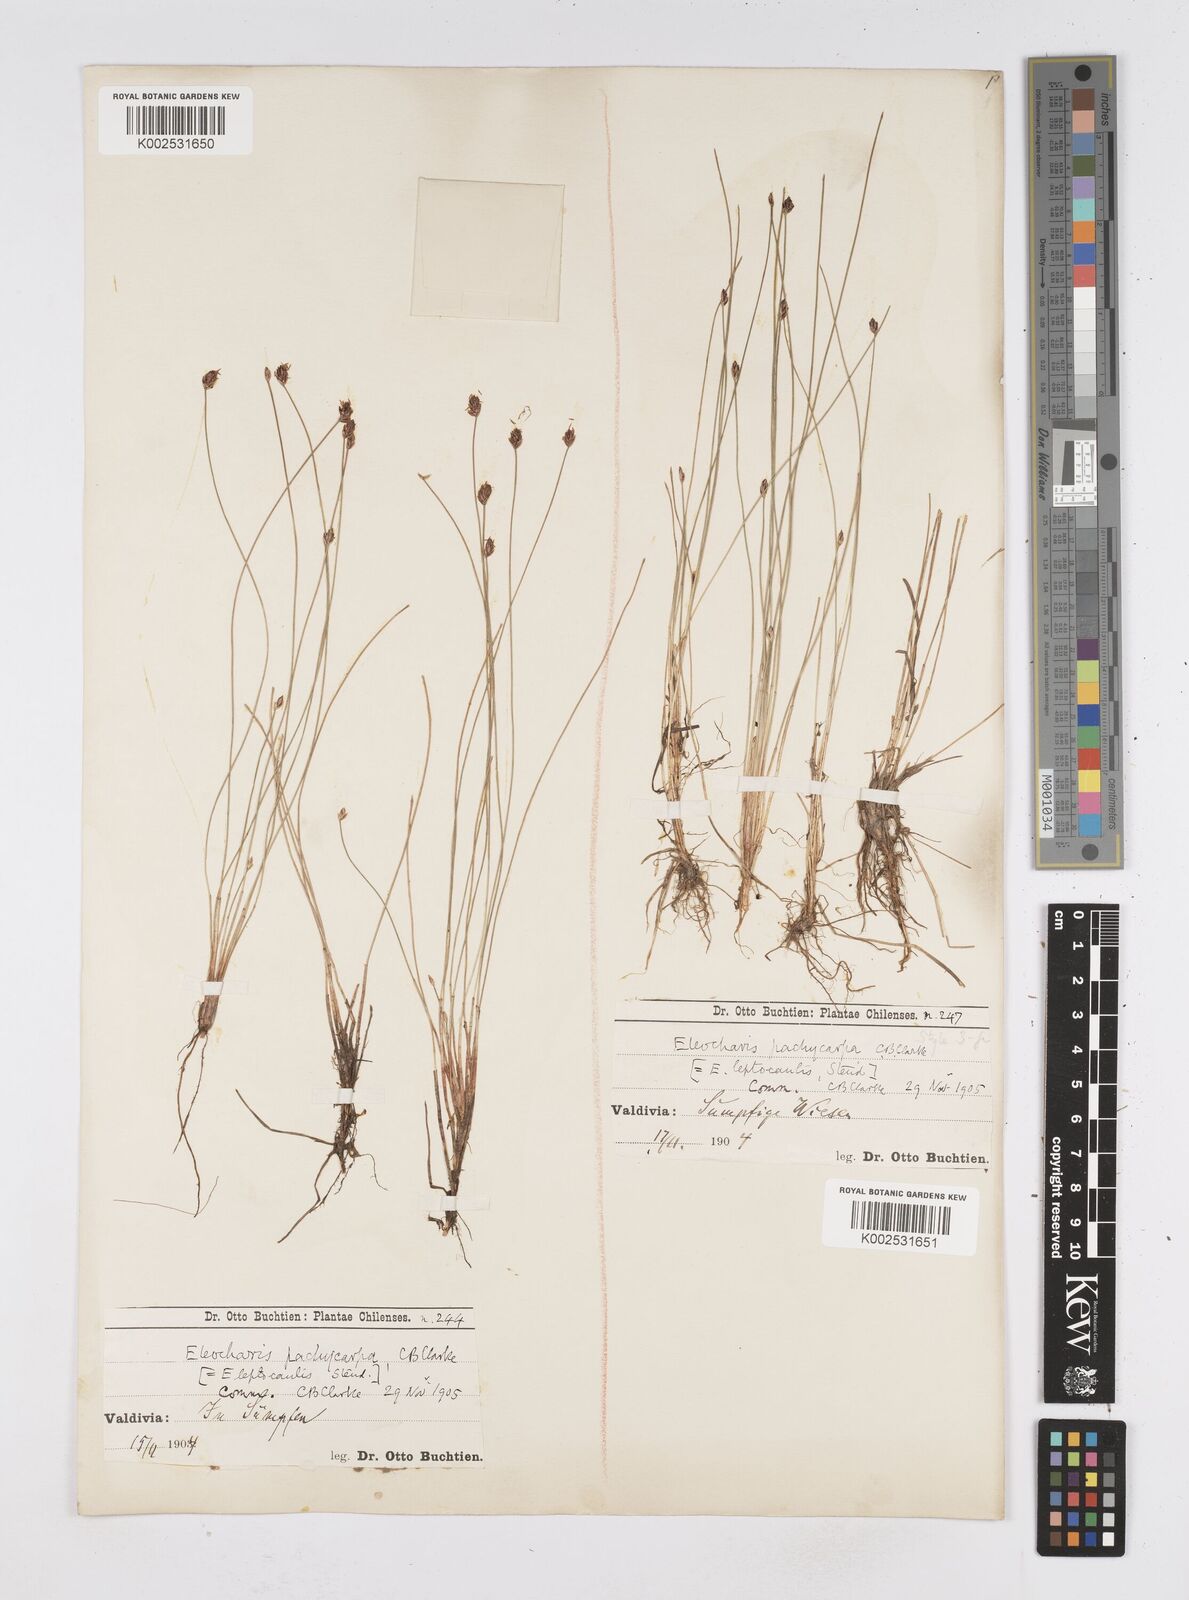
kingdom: Plantae
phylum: Tracheophyta
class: Liliopsida
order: Poales
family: Cyperaceae
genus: Eleocharis
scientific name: Eleocharis pachycarpa
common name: Black sand spikerush
